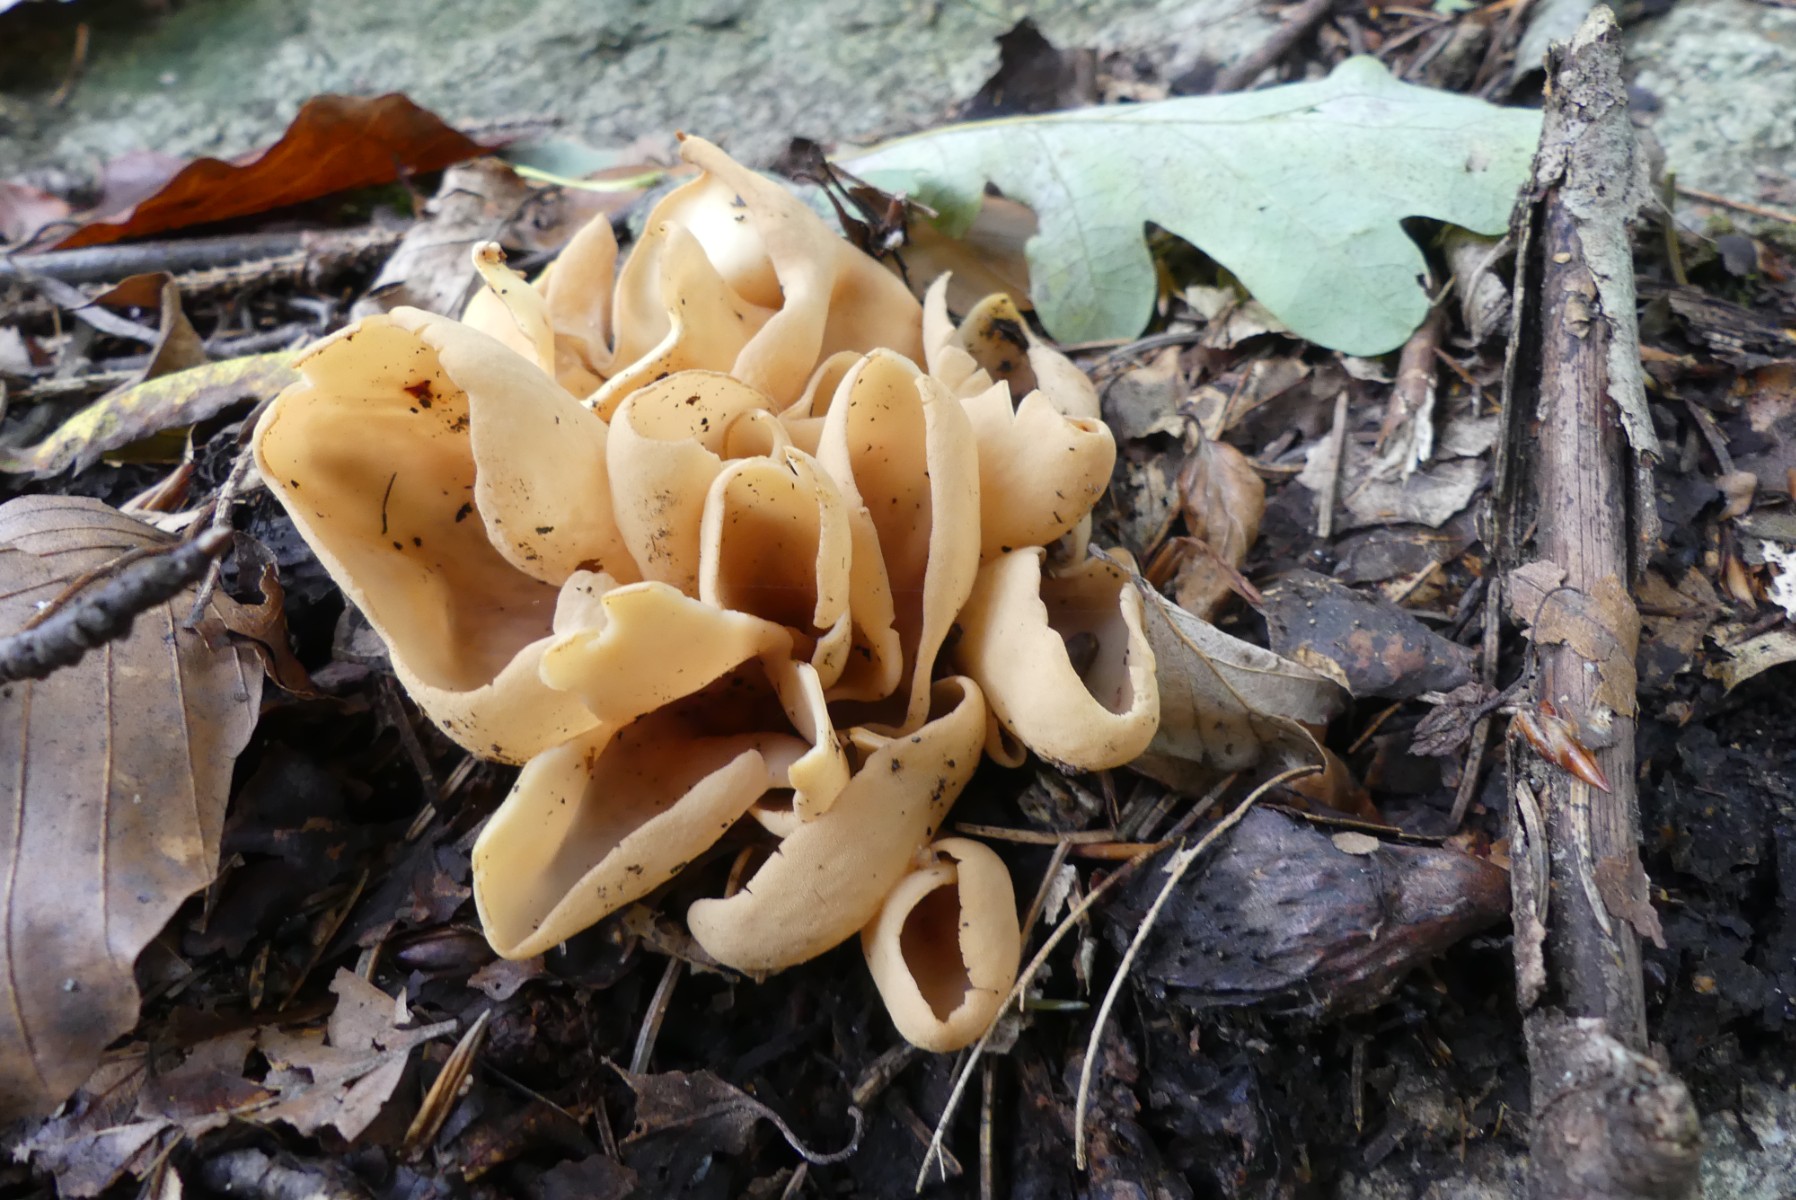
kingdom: Fungi
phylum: Ascomycota
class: Pezizomycetes
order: Pezizales
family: Otideaceae
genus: Otidea
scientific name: Otidea onotica
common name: æsel-ørebæger
